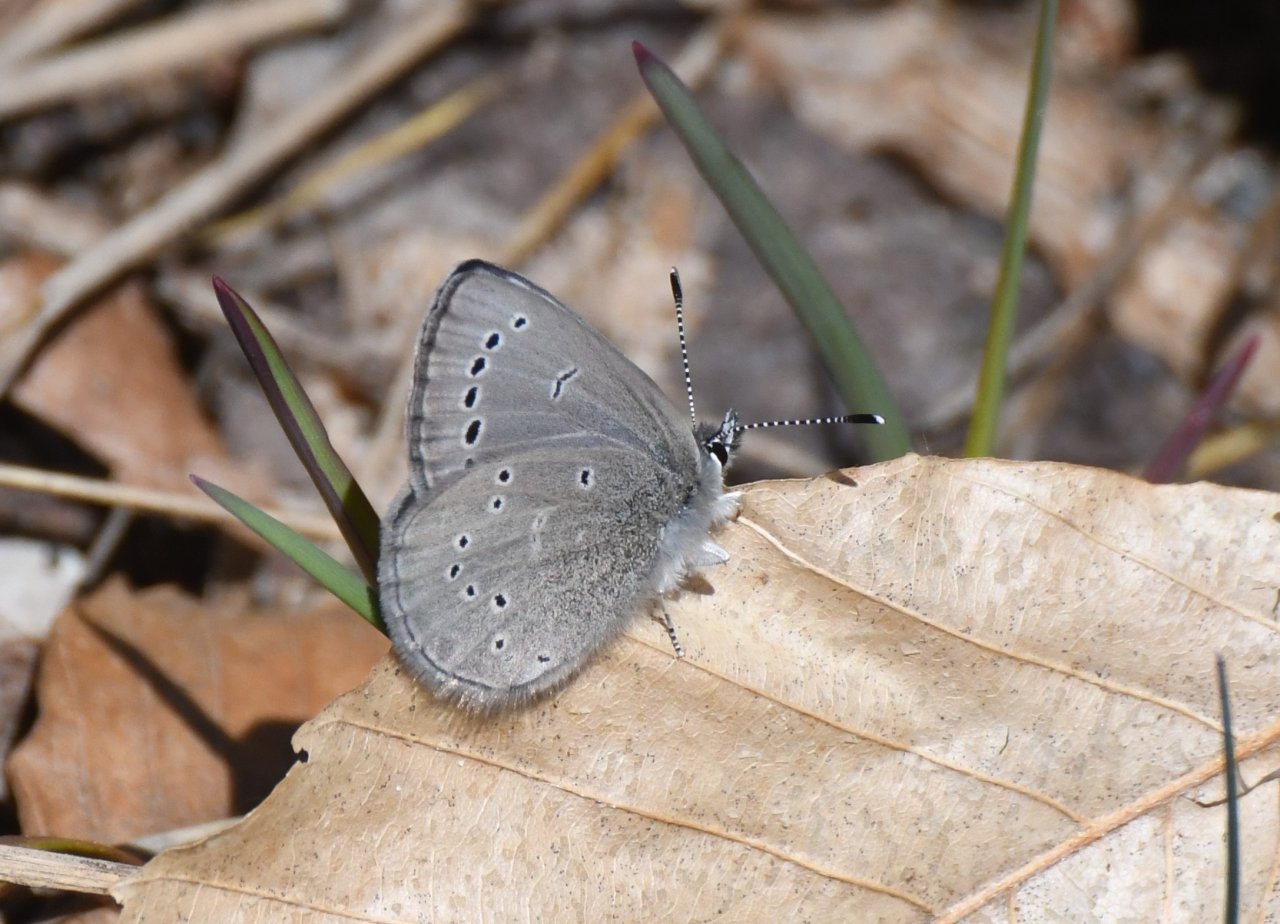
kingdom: Animalia
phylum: Arthropoda
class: Insecta
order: Lepidoptera
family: Lycaenidae
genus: Glaucopsyche
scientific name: Glaucopsyche lygdamus
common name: Silvery Blue
